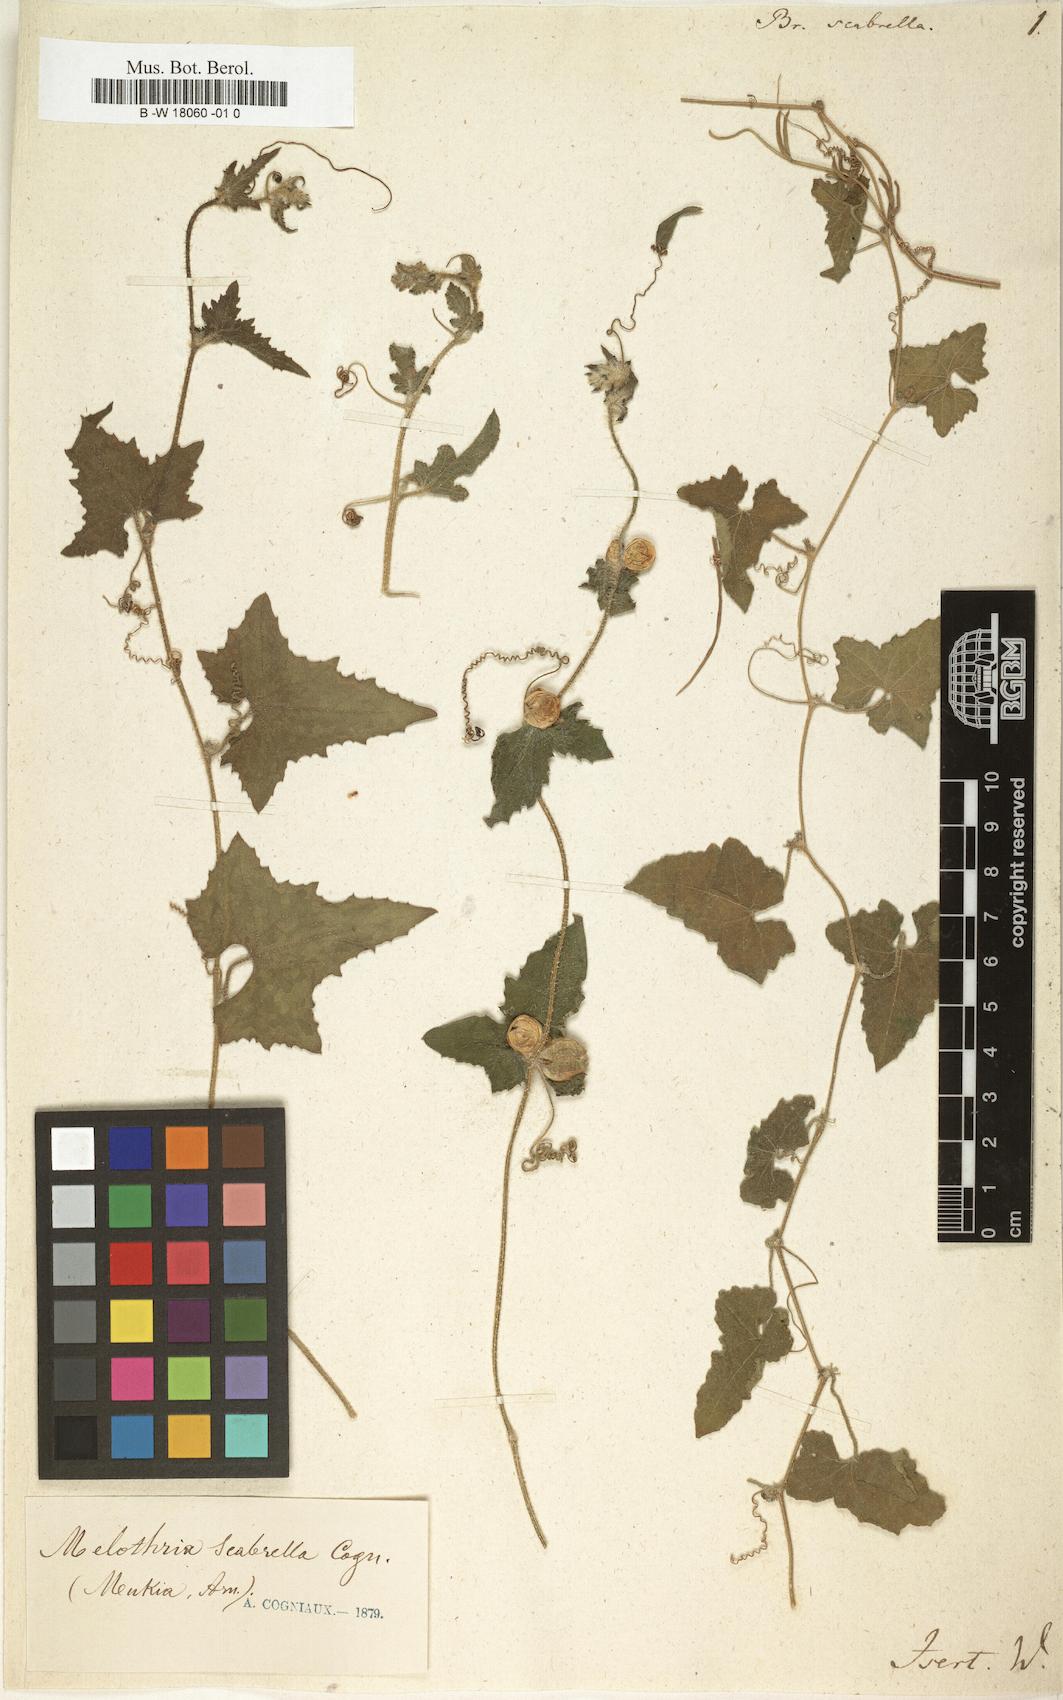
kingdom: Plantae
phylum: Tracheophyta
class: Magnoliopsida
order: Cucurbitales
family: Cucurbitaceae
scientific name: Cucurbitaceae
